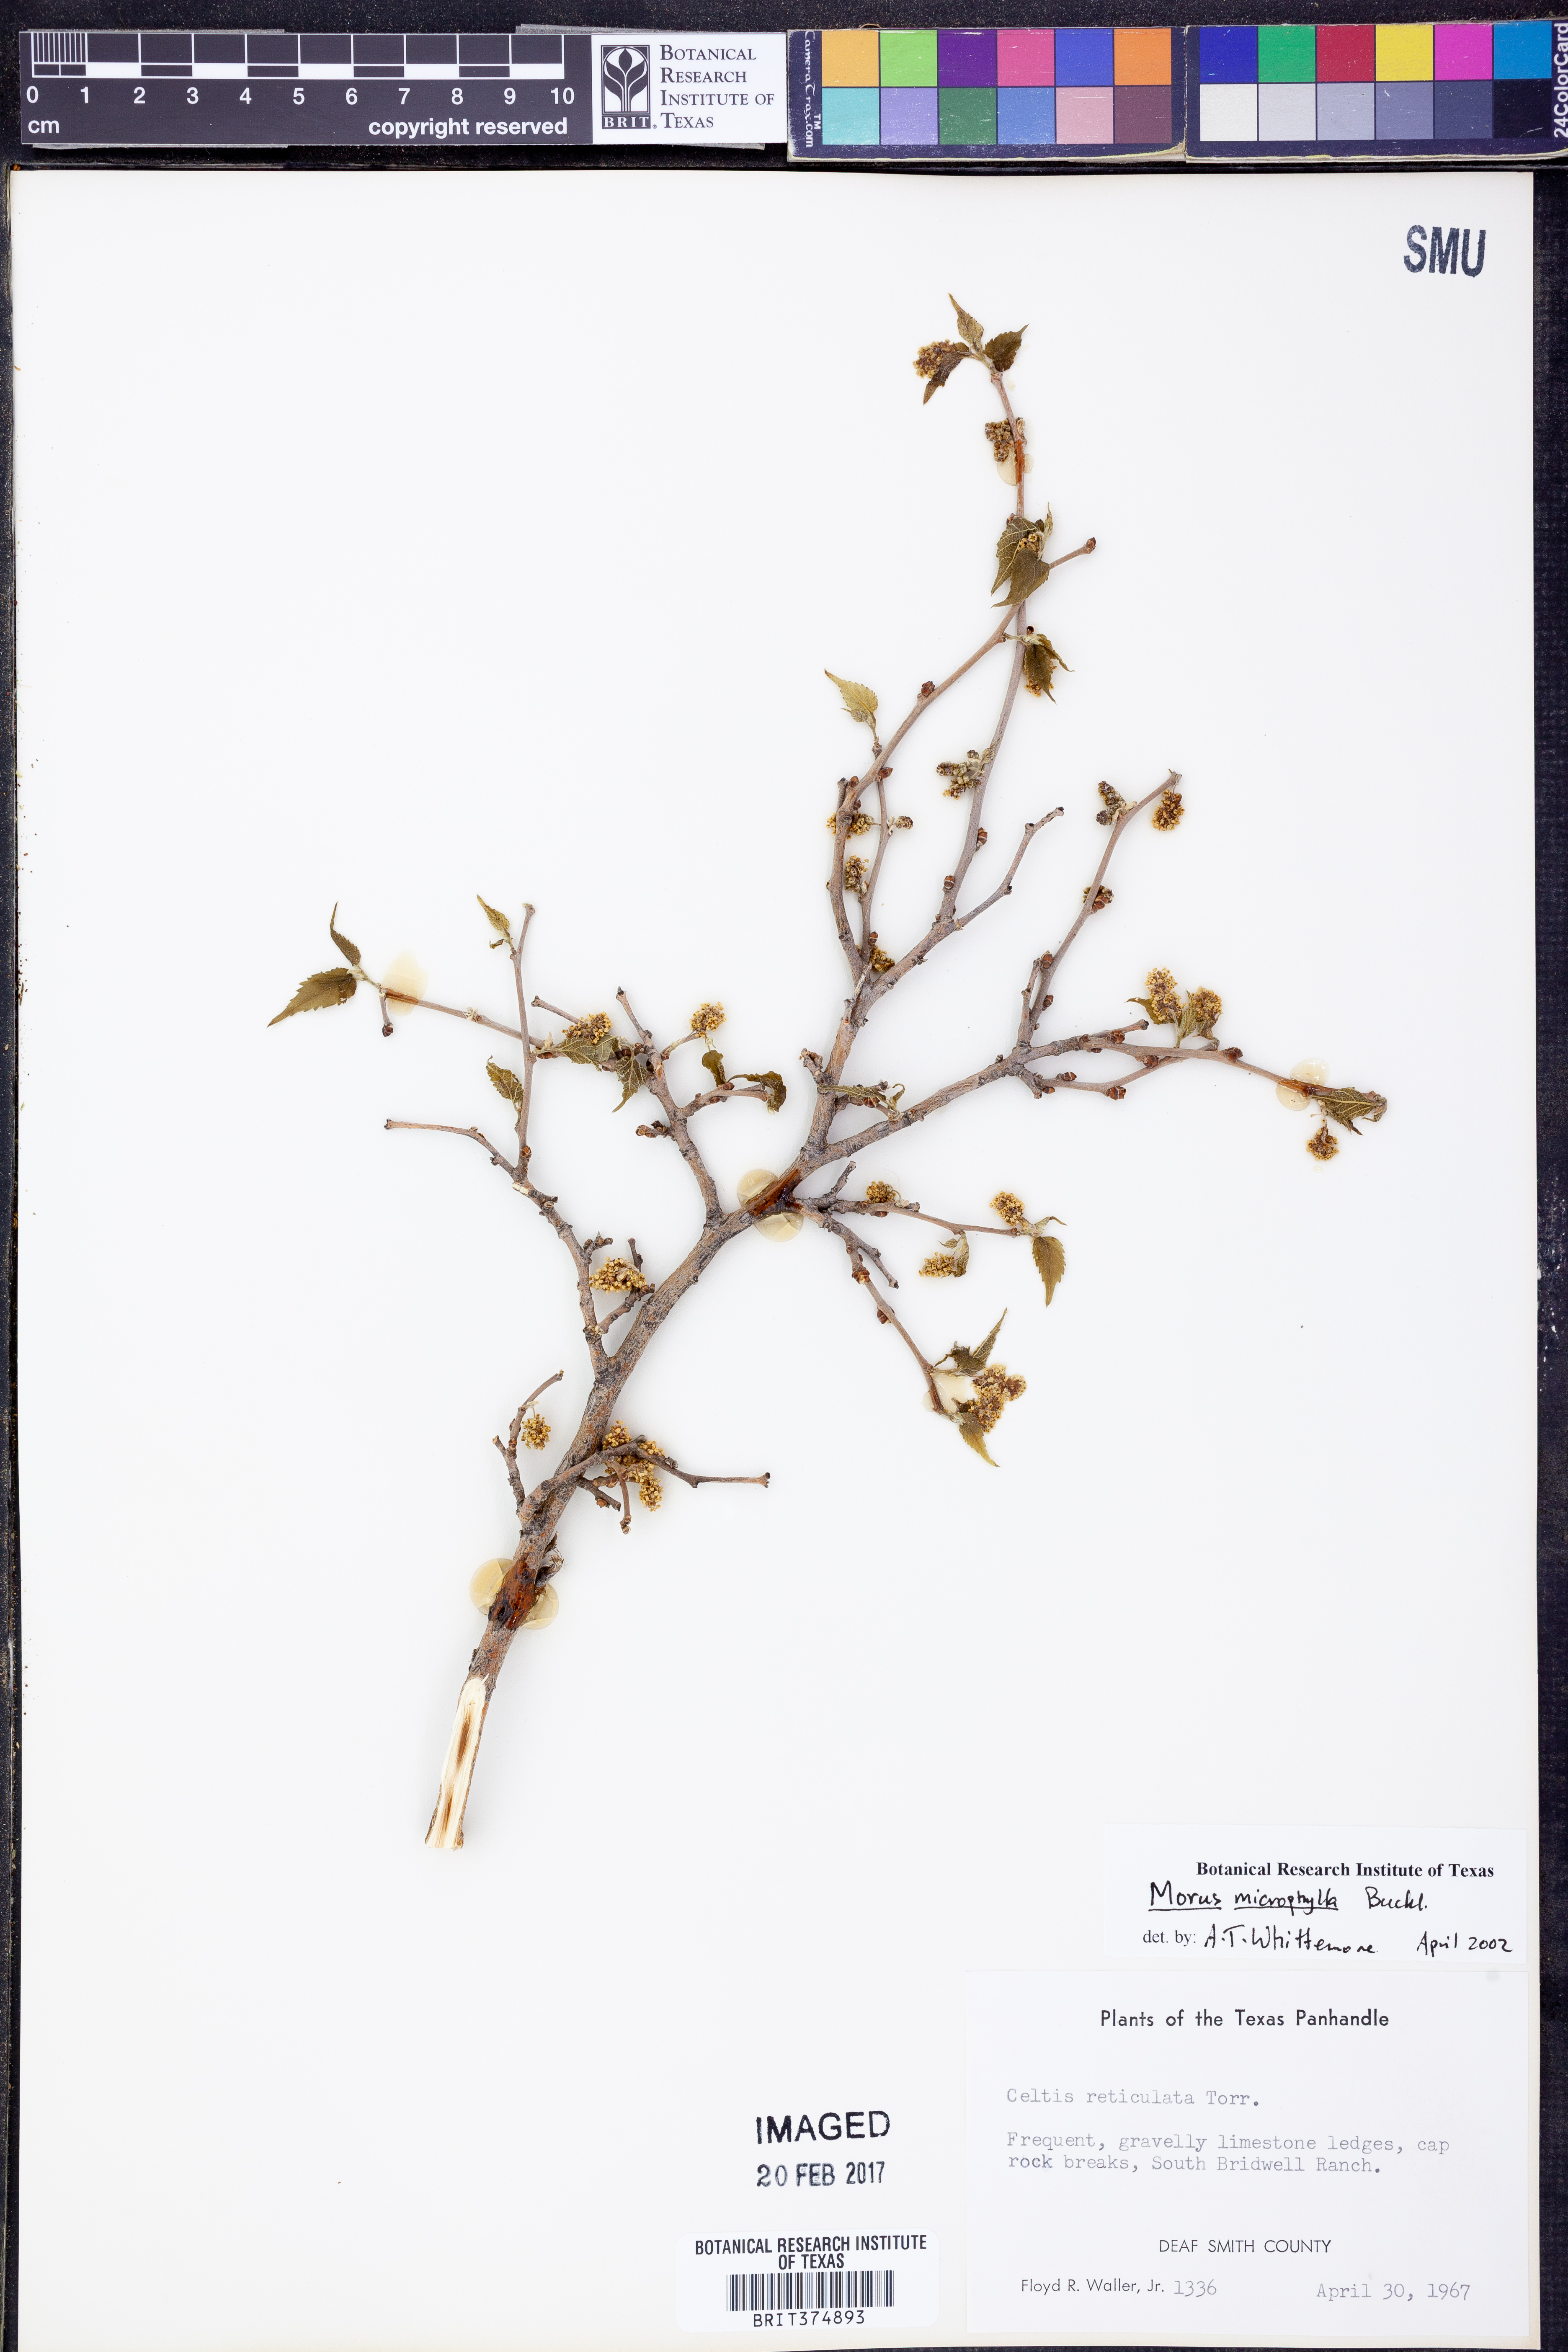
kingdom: Plantae
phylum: Tracheophyta
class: Magnoliopsida
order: Rosales
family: Moraceae
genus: Morus
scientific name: Morus microphylla
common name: Mexican mulberry
